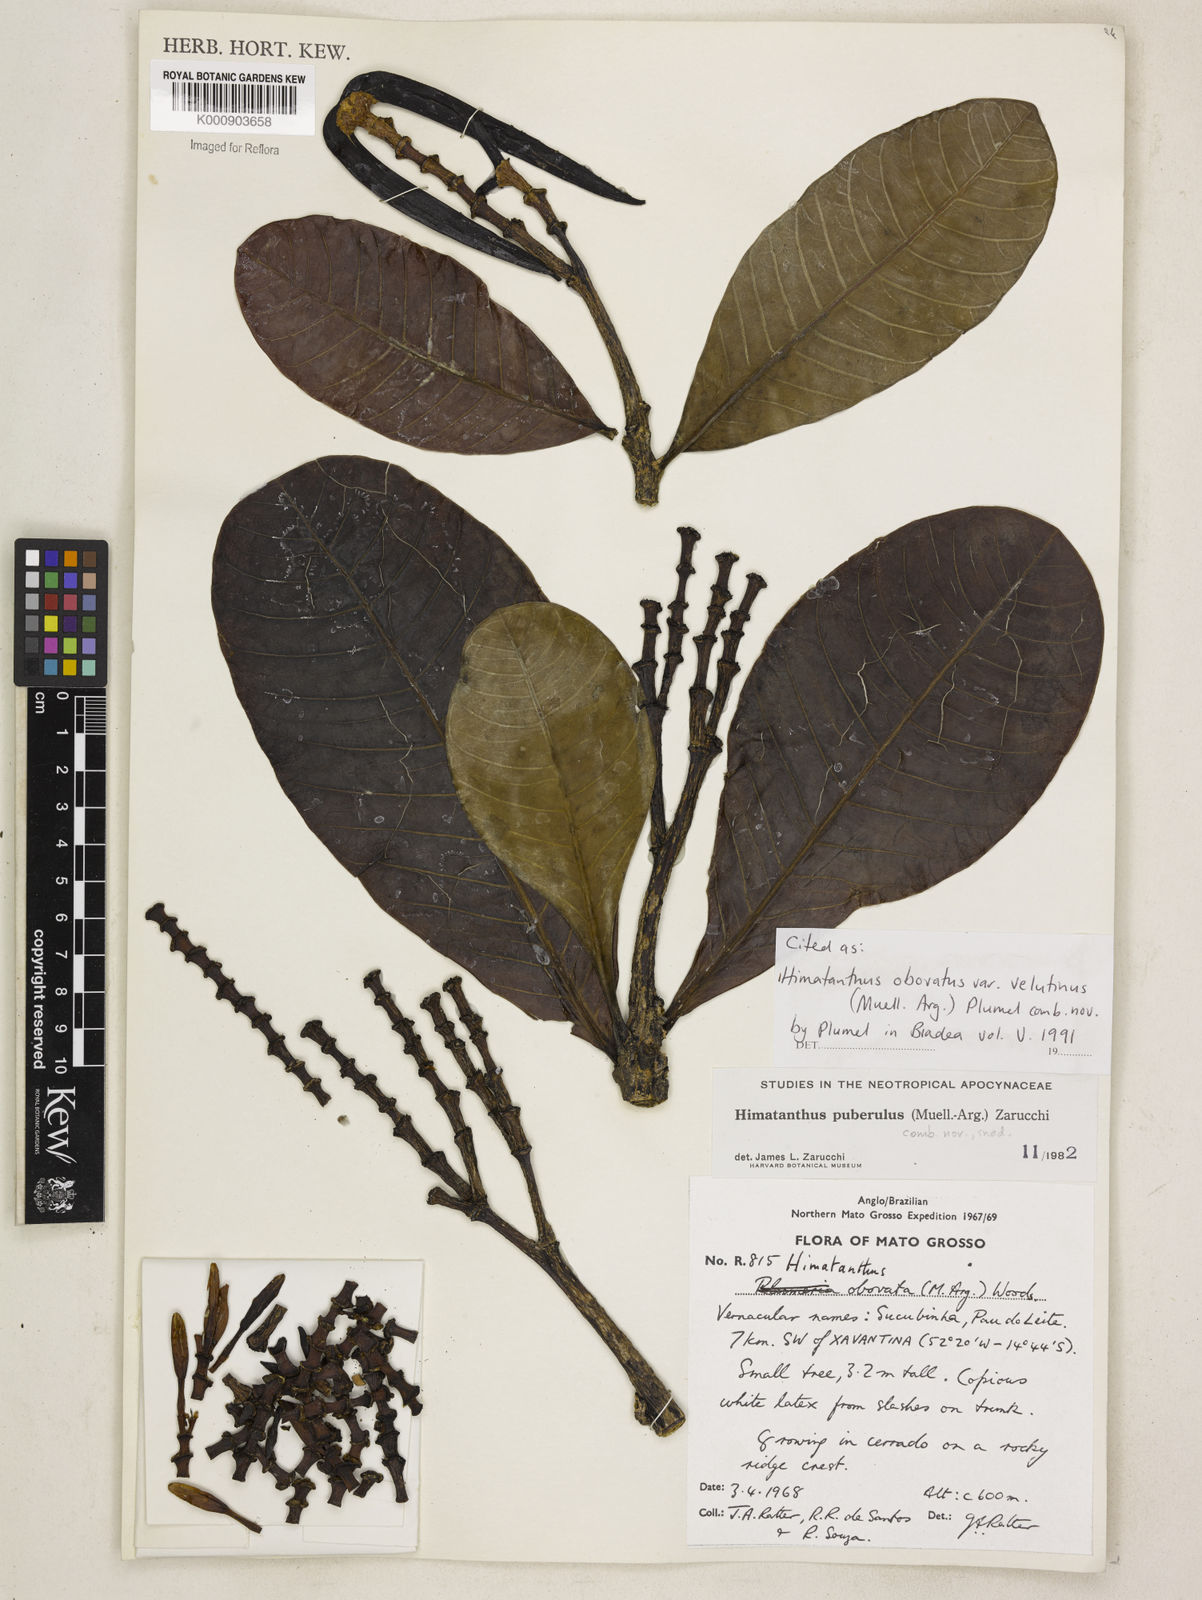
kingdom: Plantae
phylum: Tracheophyta
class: Magnoliopsida
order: Gentianales
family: Apocynaceae
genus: Himatanthus
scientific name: Himatanthus
